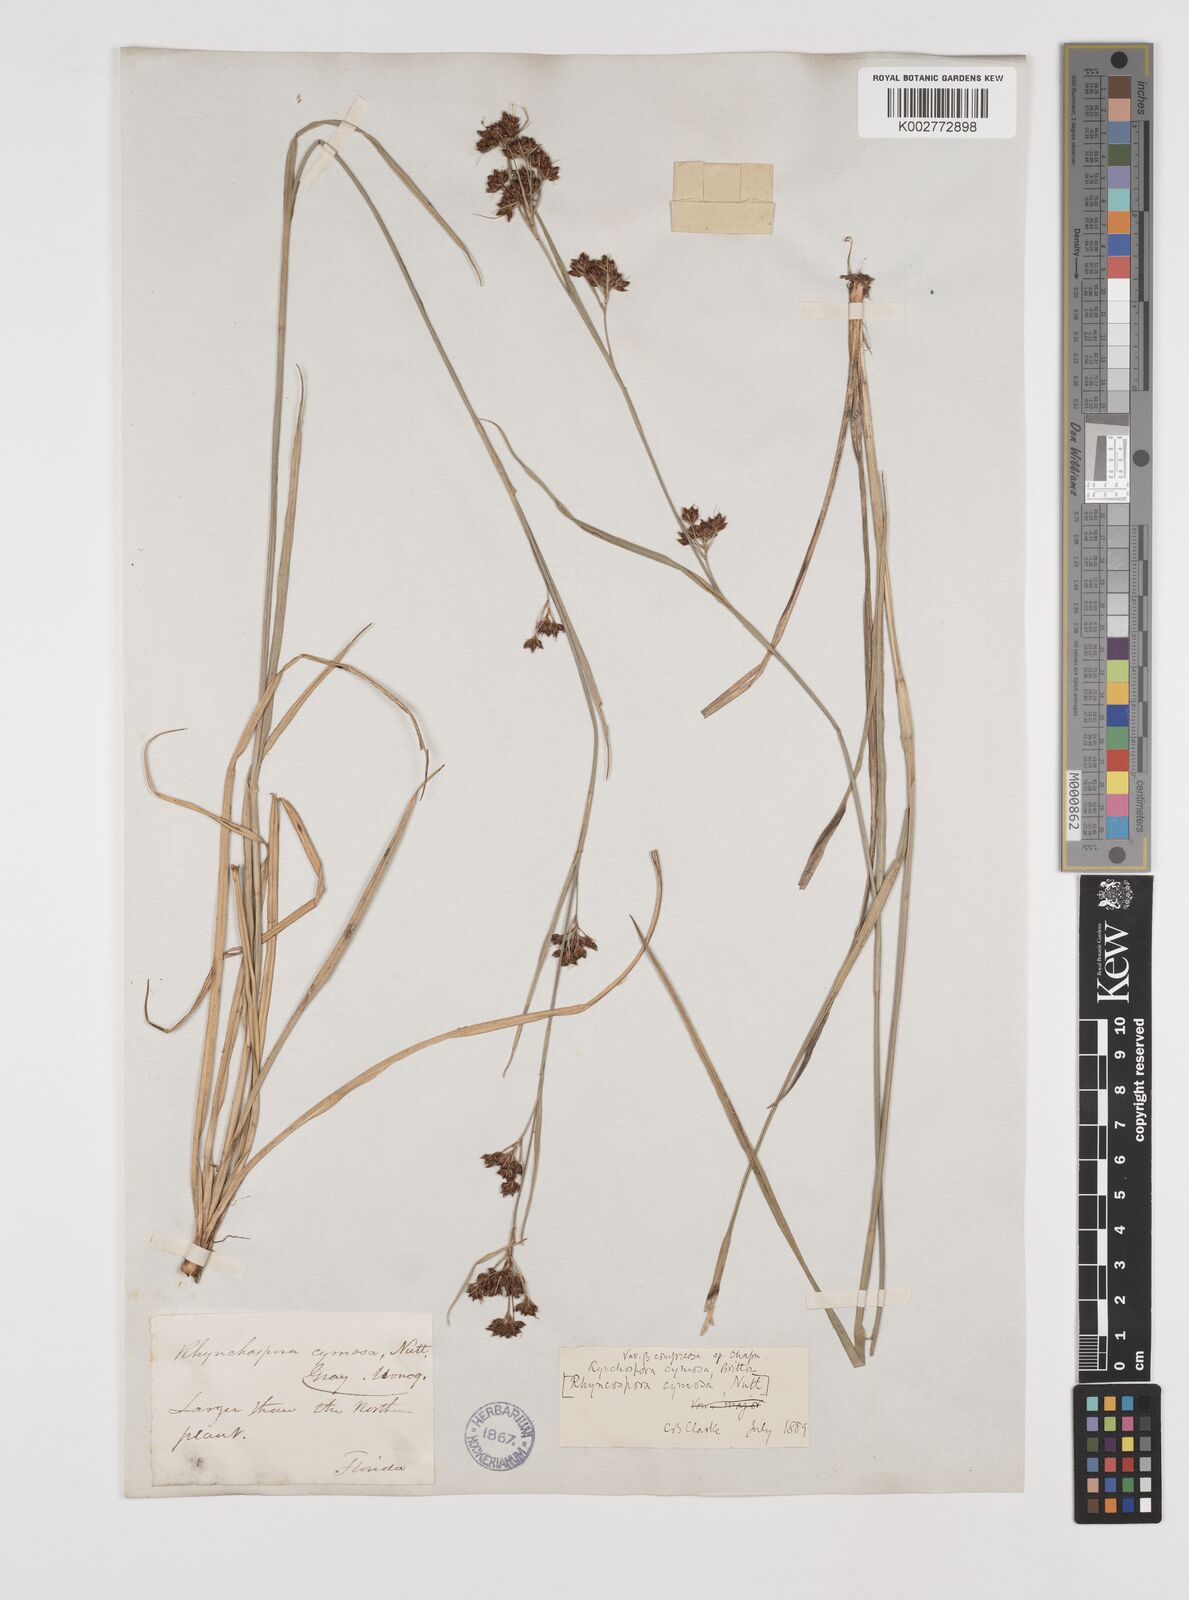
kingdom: Plantae
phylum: Tracheophyta
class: Liliopsida
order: Poales
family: Cyperaceae
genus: Scirpus
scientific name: Scirpus polyphyllus
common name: Leafy bulrush
